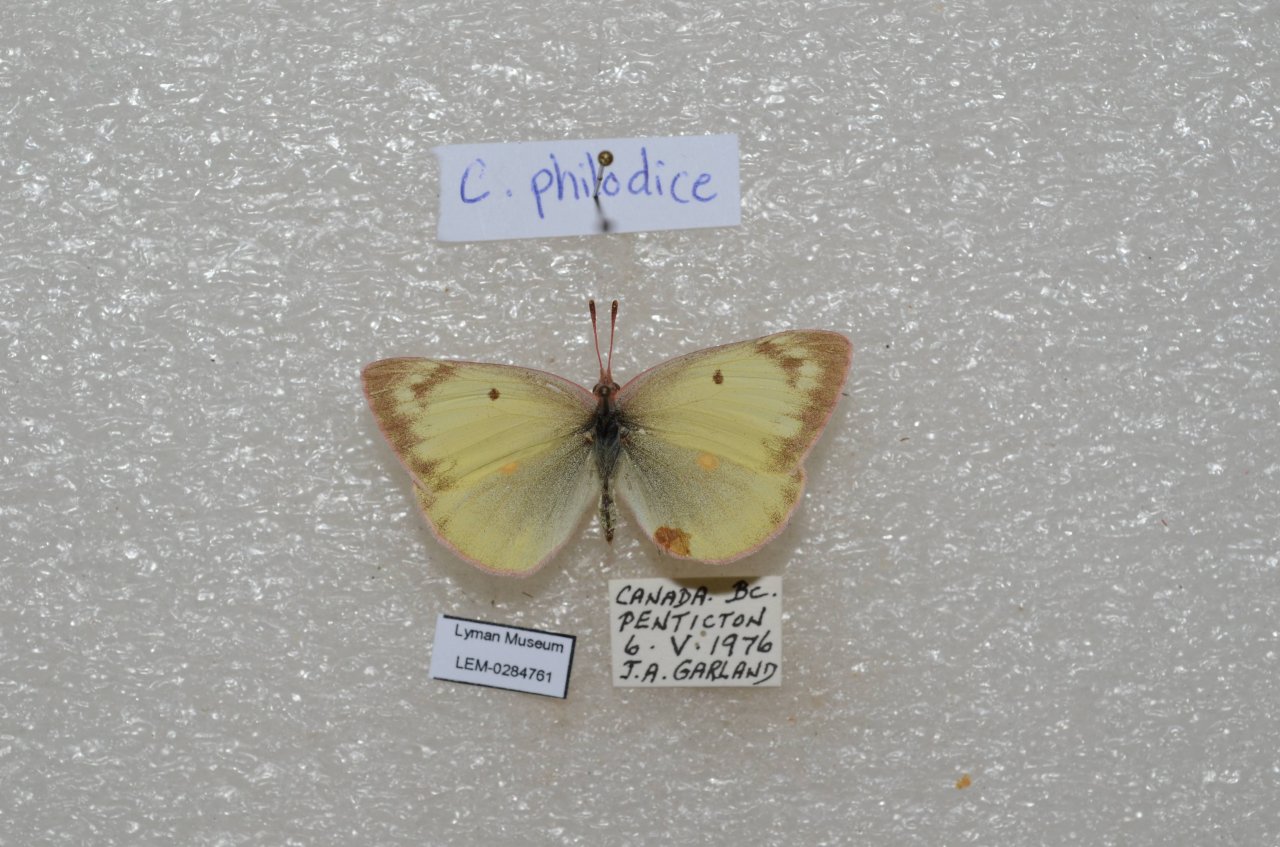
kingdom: Animalia
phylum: Arthropoda
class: Insecta
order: Lepidoptera
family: Pieridae
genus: Colias
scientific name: Colias philodice
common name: Clouded Sulphur
